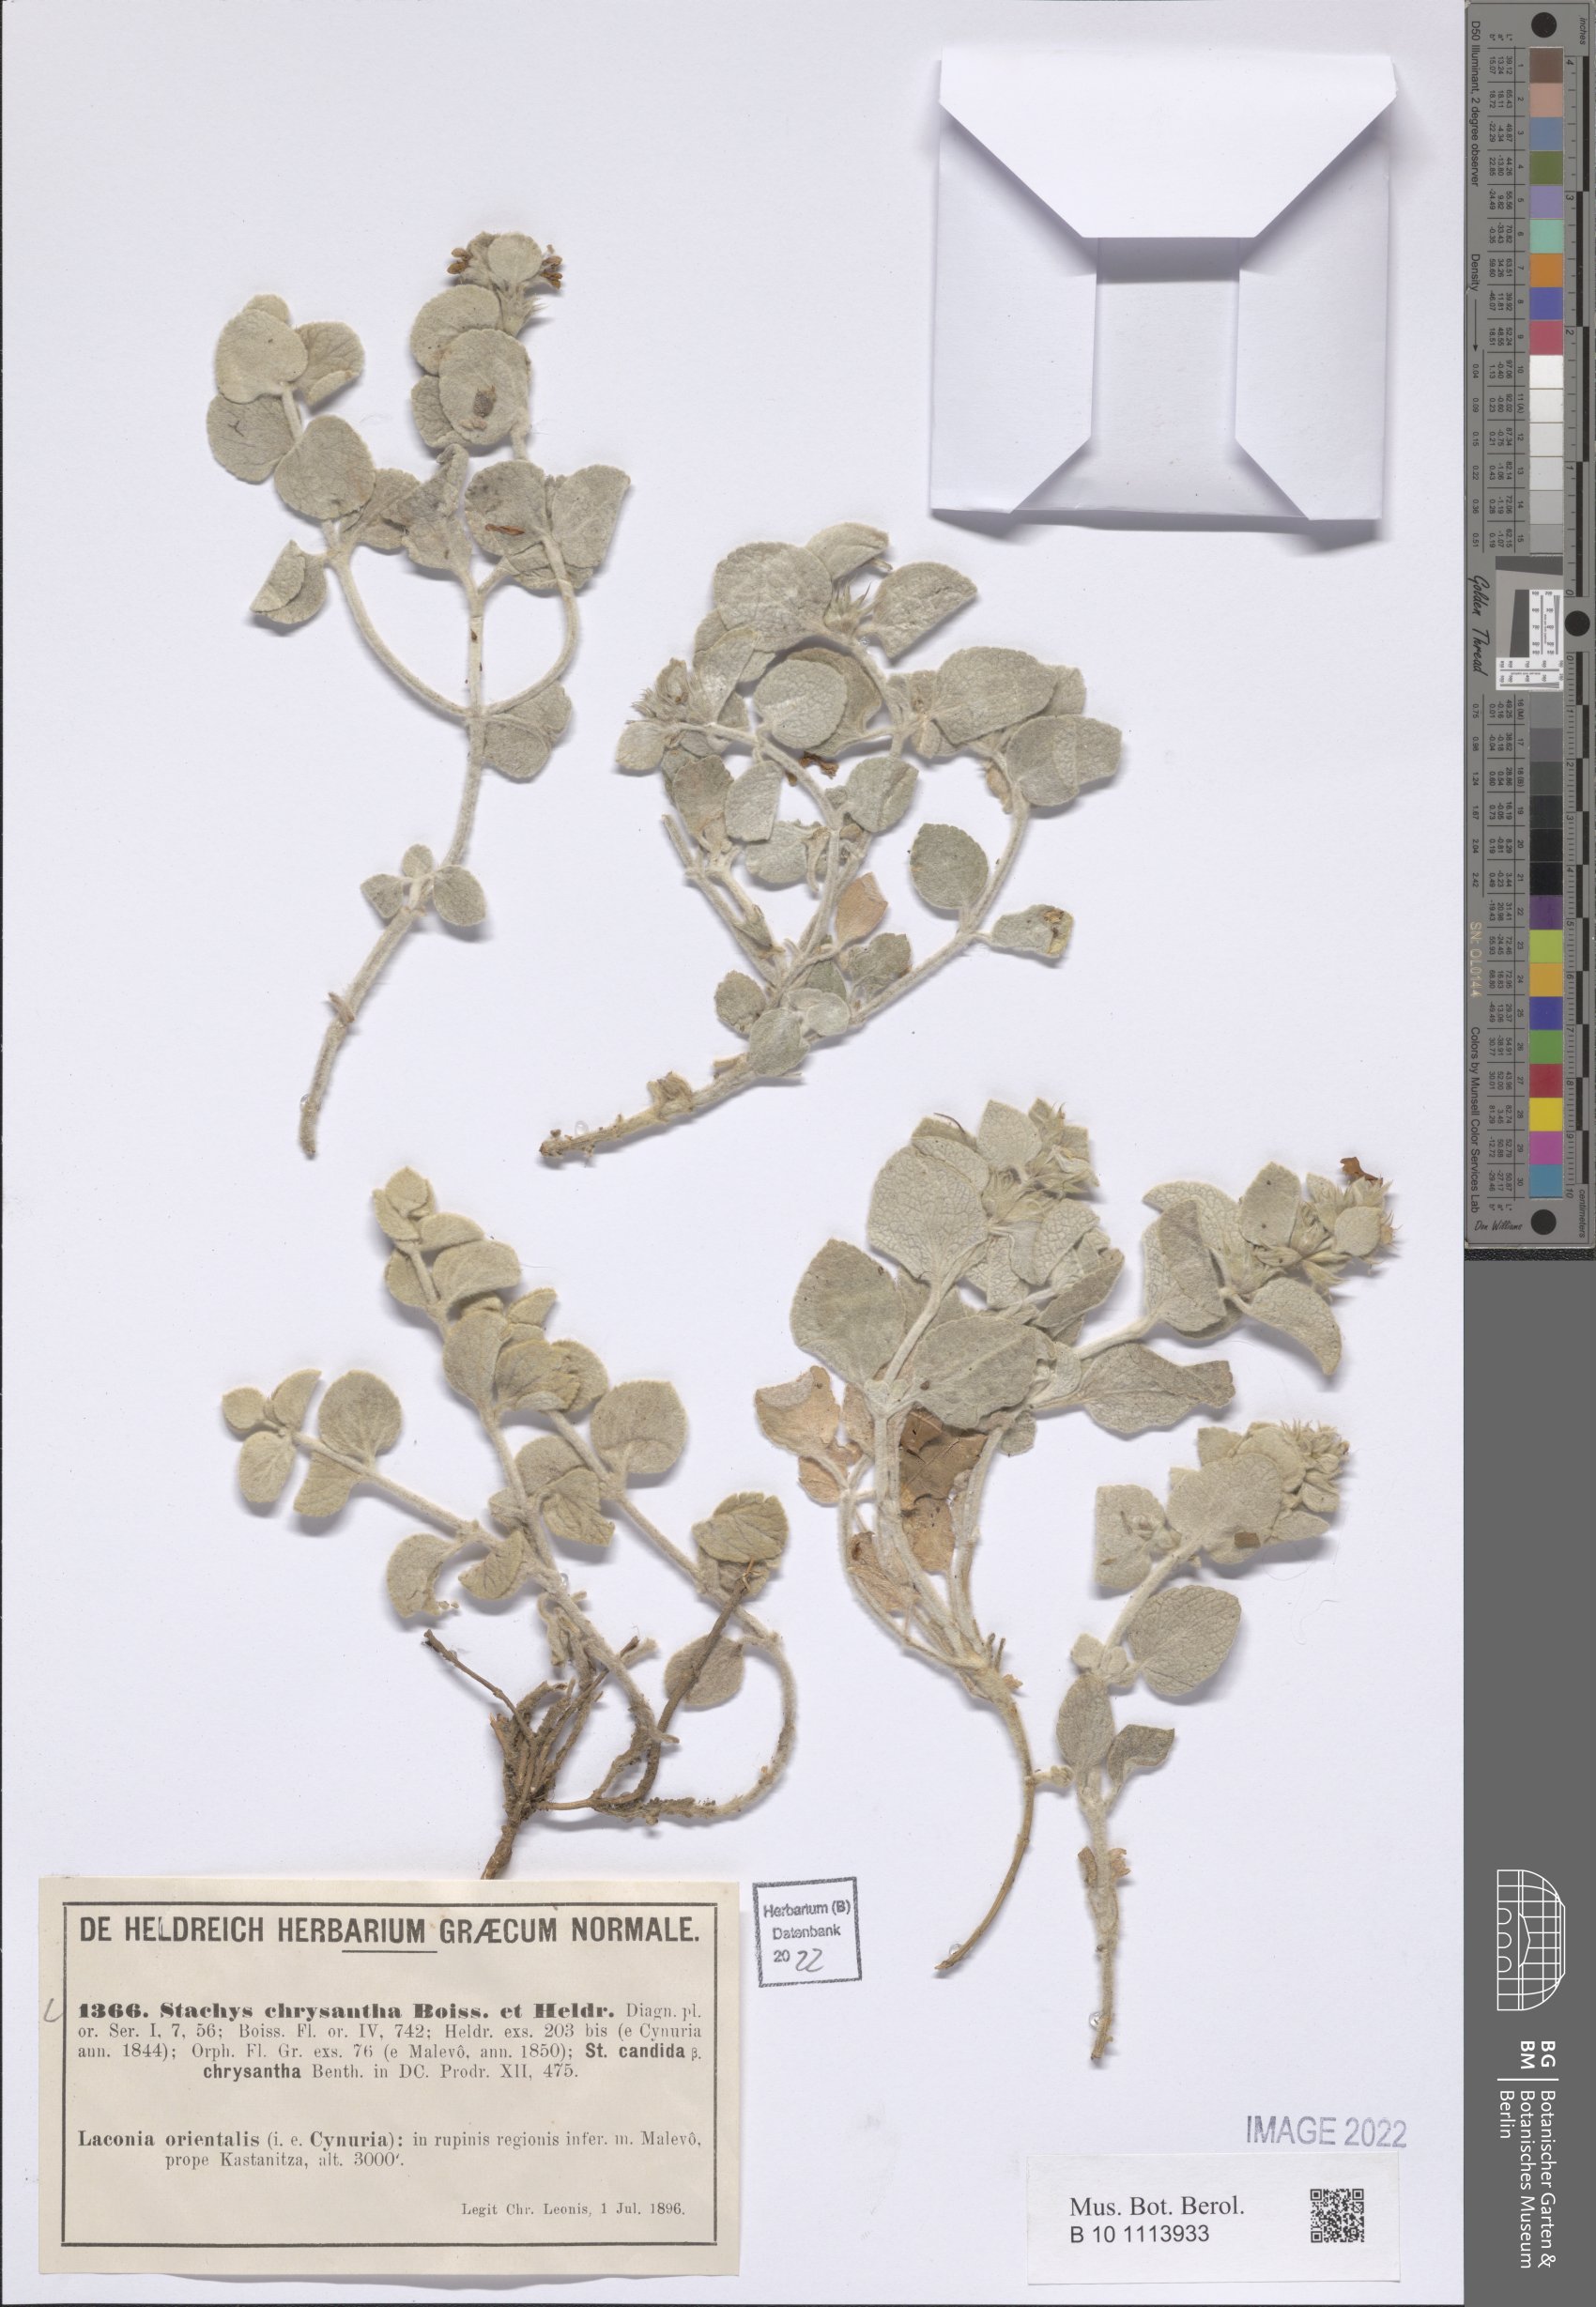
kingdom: Plantae
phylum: Tracheophyta
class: Magnoliopsida
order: Lamiales
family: Lamiaceae
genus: Stachys
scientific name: Stachys chrysantha
